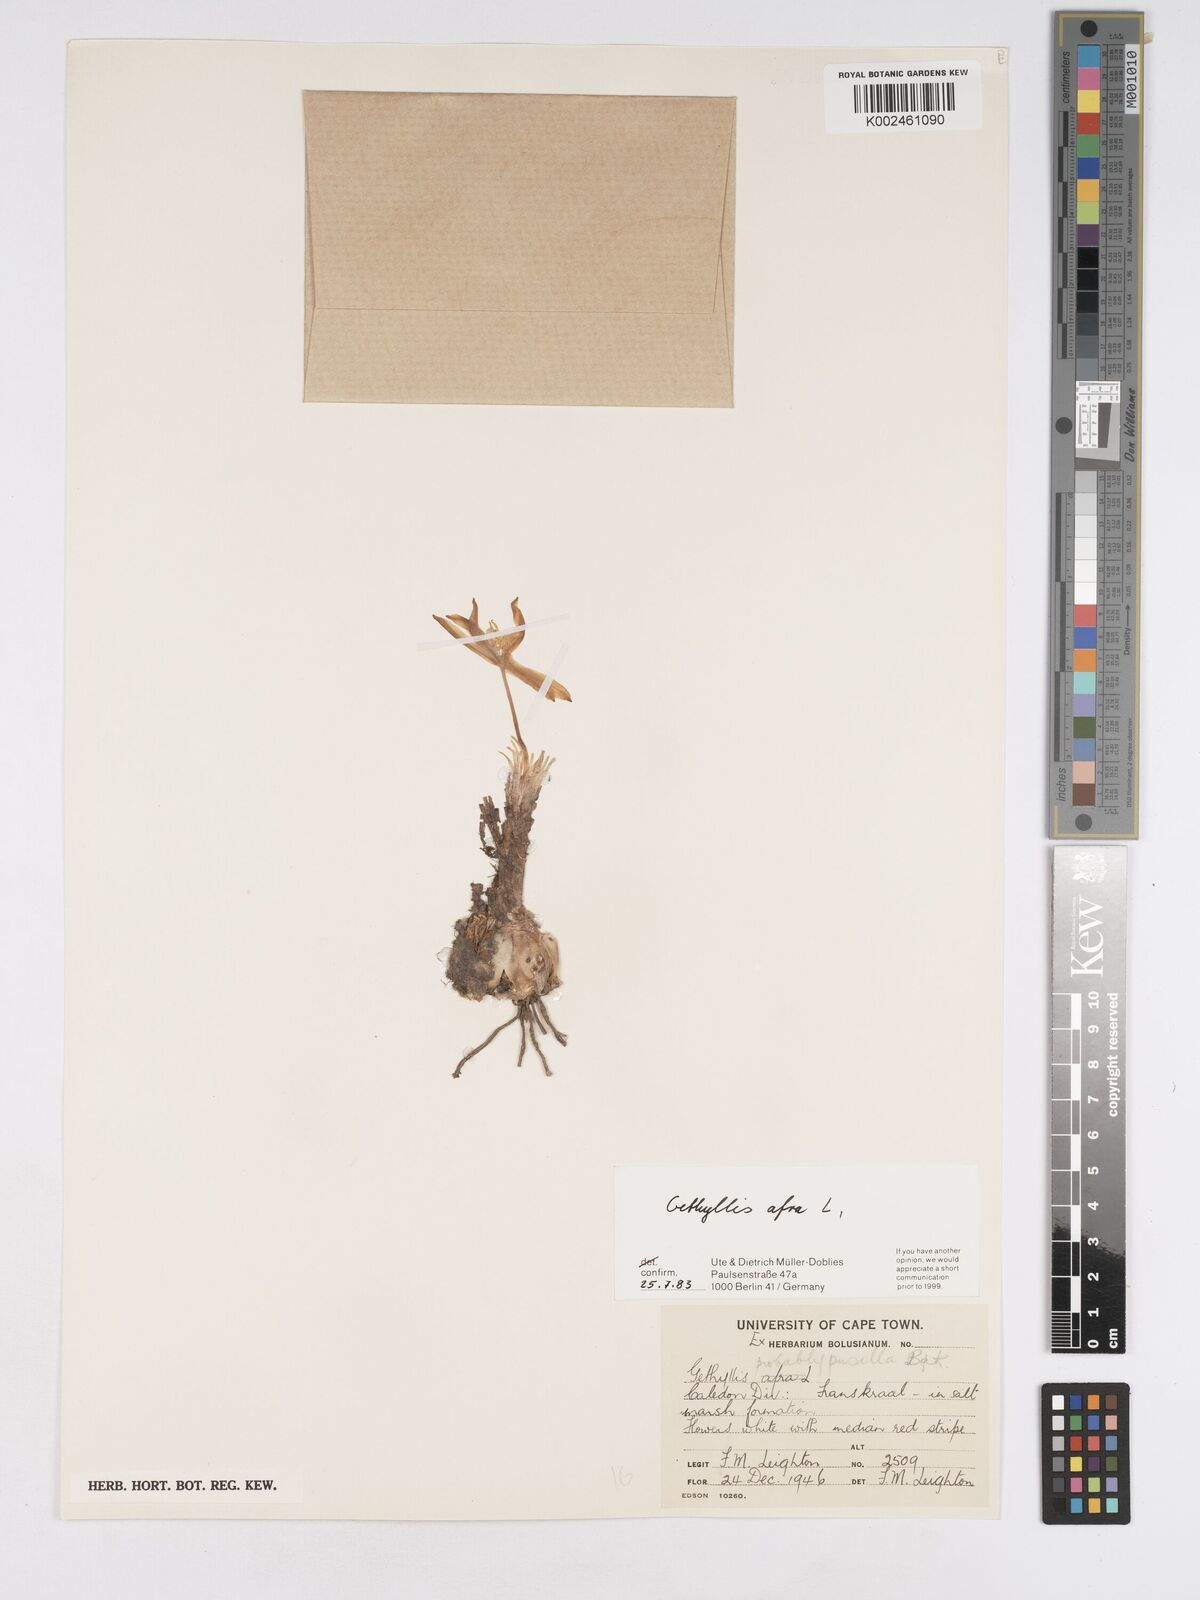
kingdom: Plantae
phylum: Tracheophyta
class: Liliopsida
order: Asparagales
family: Amaryllidaceae
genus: Gethyllis
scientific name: Gethyllis afra
